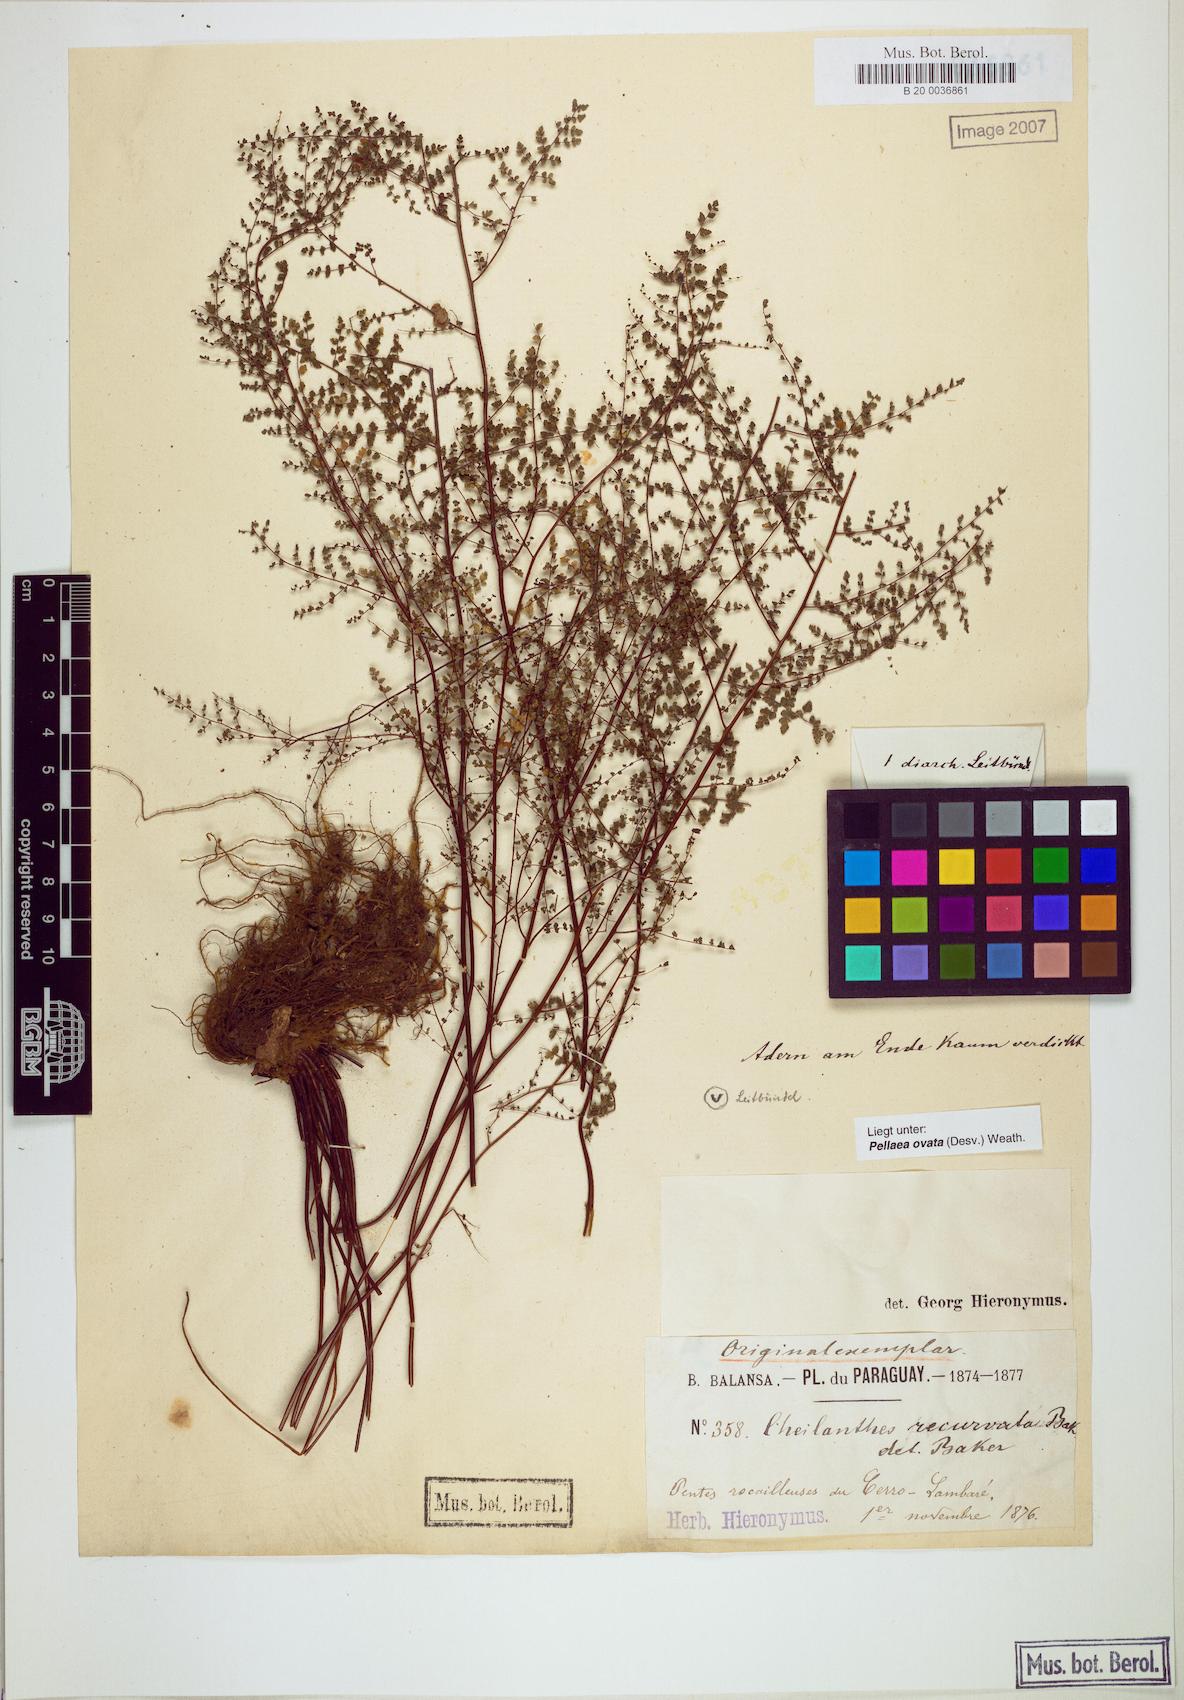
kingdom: Plantae
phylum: Tracheophyta
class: Polypodiopsida
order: Polypodiales
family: Pteridaceae
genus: Pellaea
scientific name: Pellaea ovata
